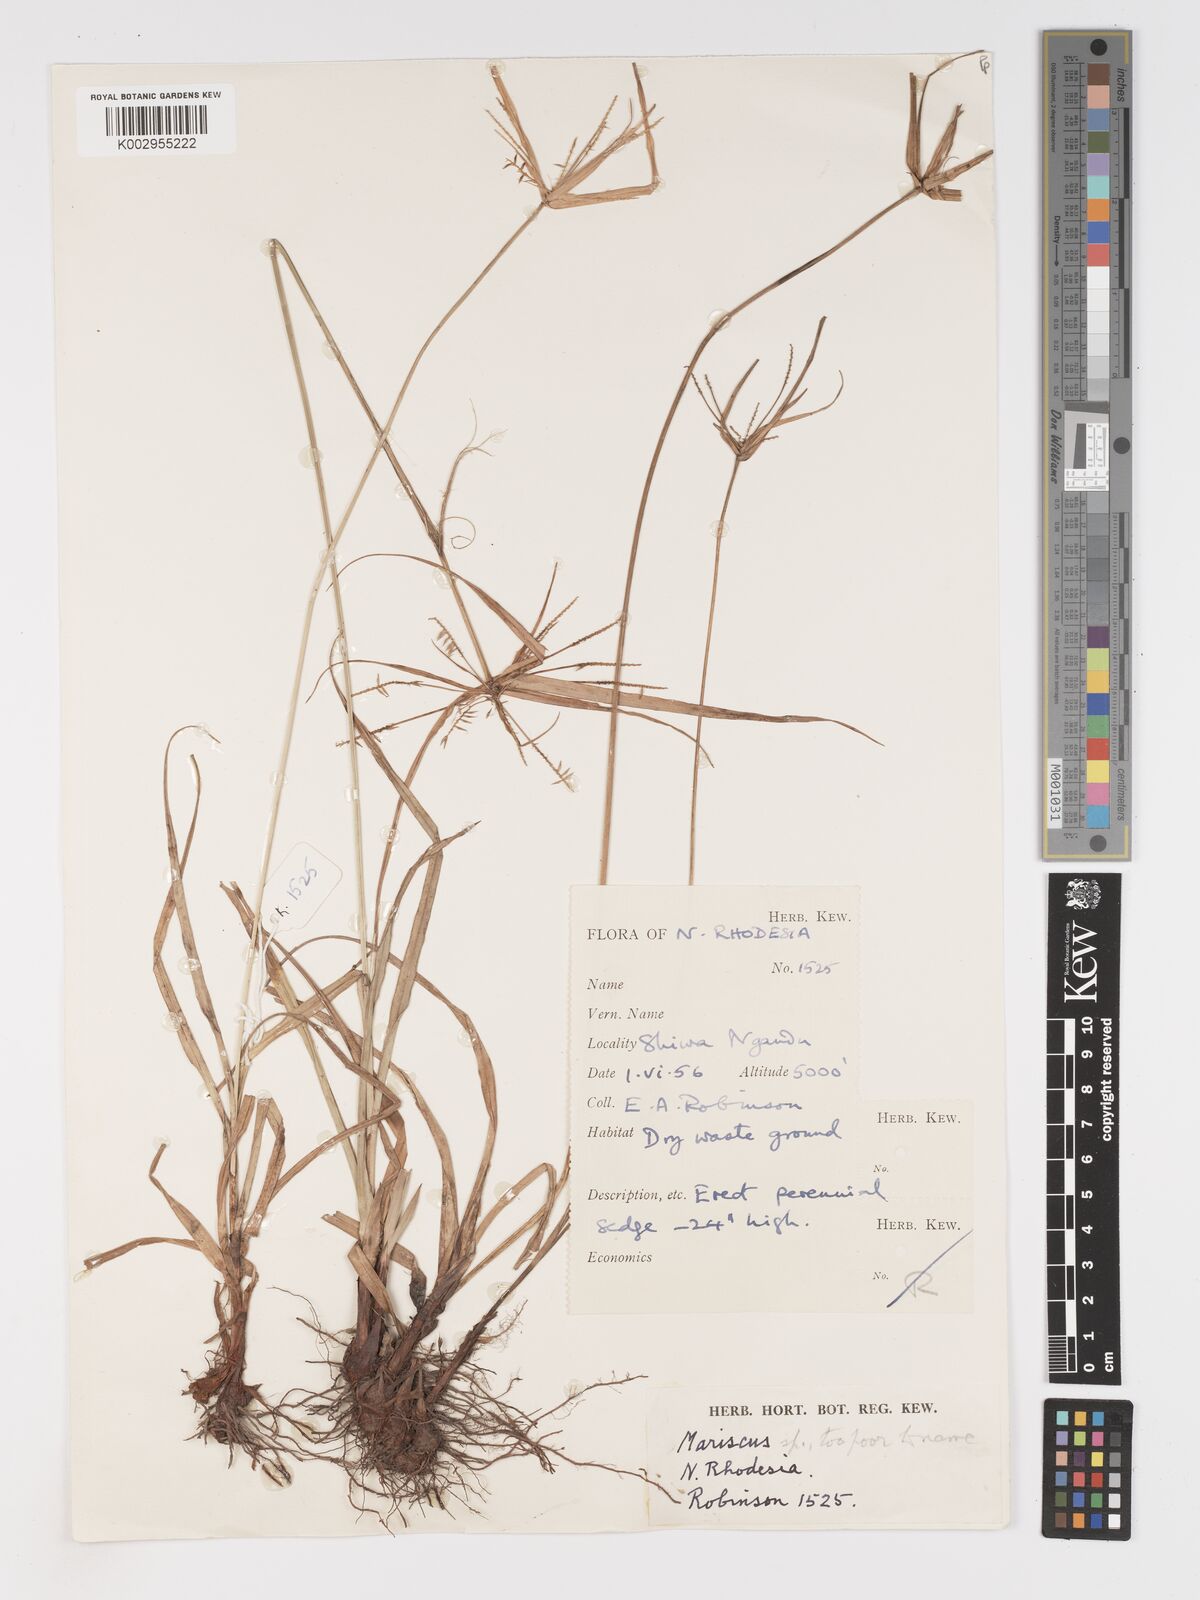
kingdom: Plantae
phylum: Tracheophyta
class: Liliopsida
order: Poales
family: Cyperaceae
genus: Cyperus
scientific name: Cyperus
